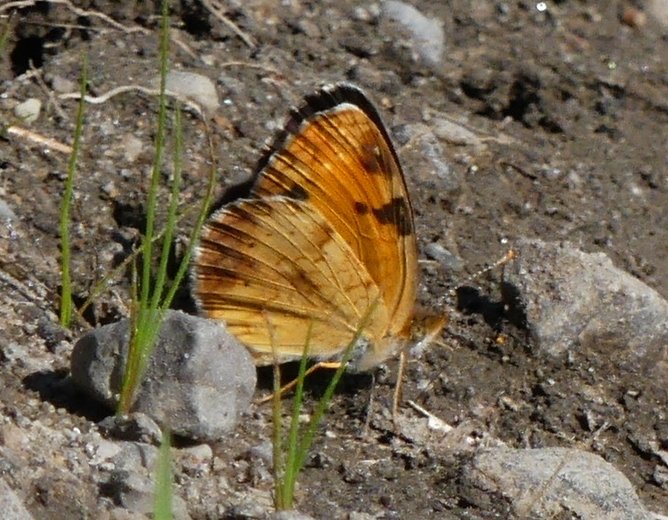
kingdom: Animalia
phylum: Arthropoda
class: Insecta
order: Lepidoptera
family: Nymphalidae
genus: Phyciodes
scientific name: Phyciodes tharos
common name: Northern Crescent
